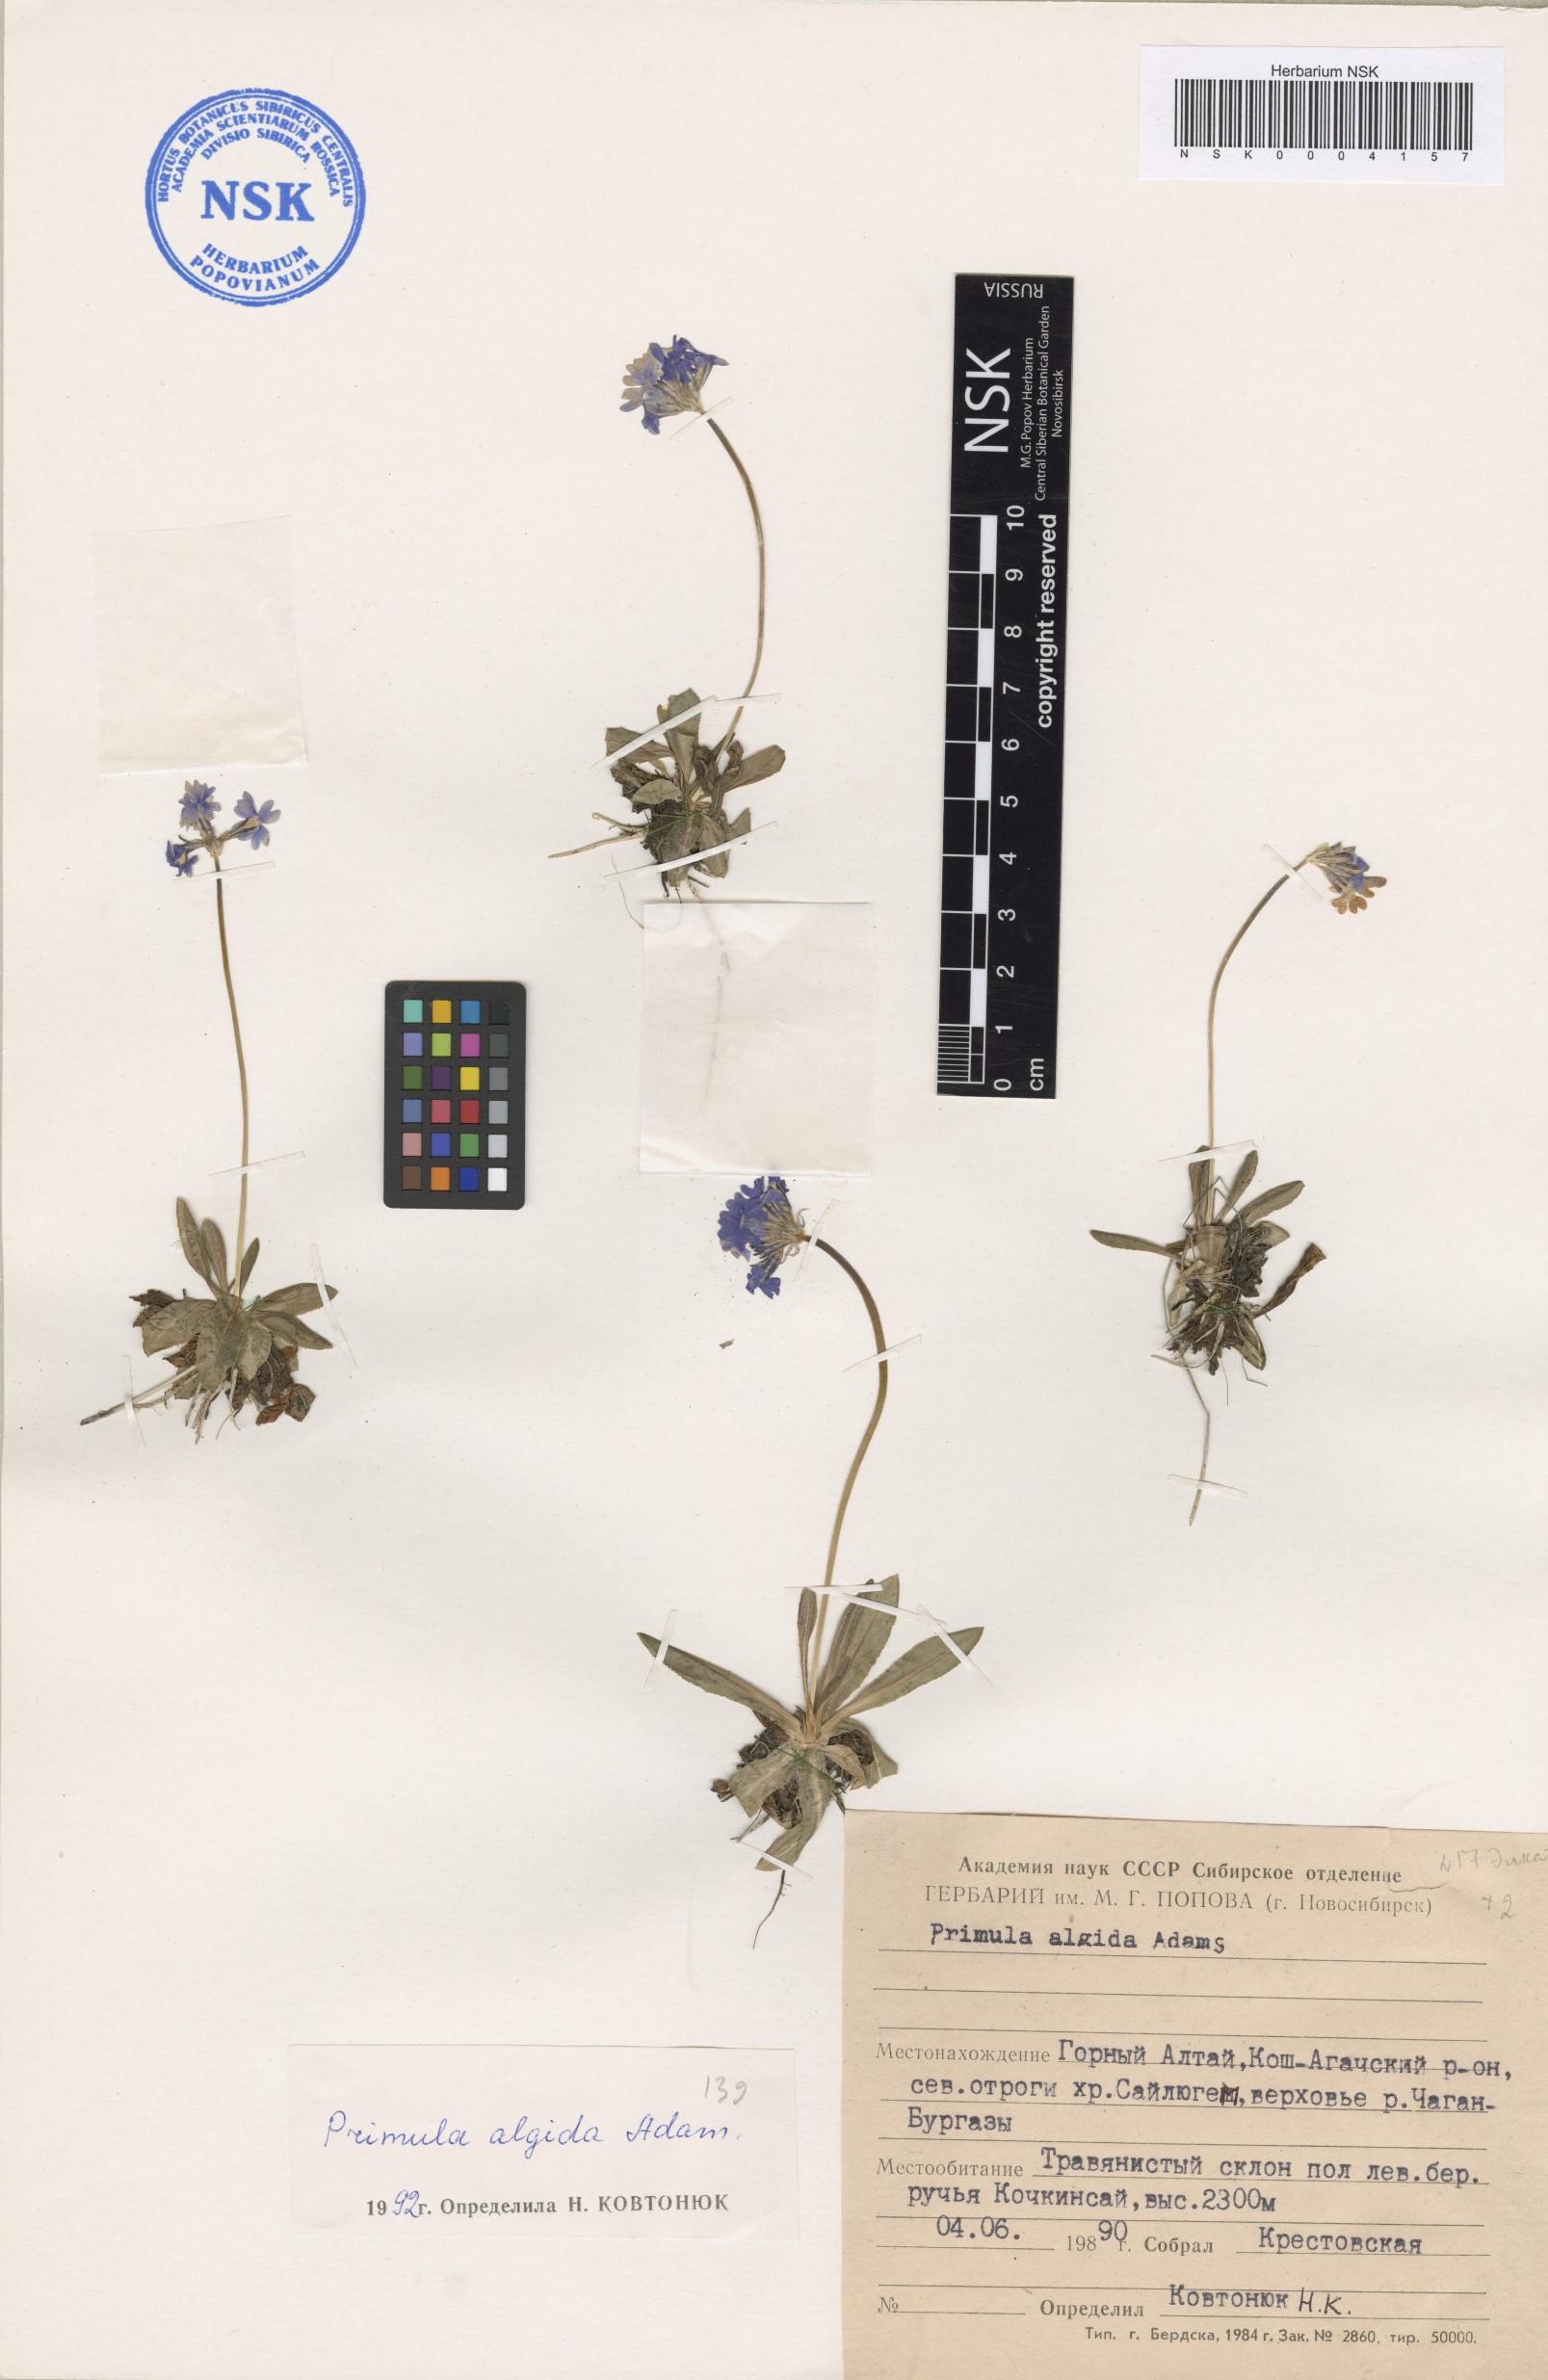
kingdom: Plantae
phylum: Tracheophyta
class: Magnoliopsida
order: Ericales
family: Primulaceae
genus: Primula
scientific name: Primula algida
